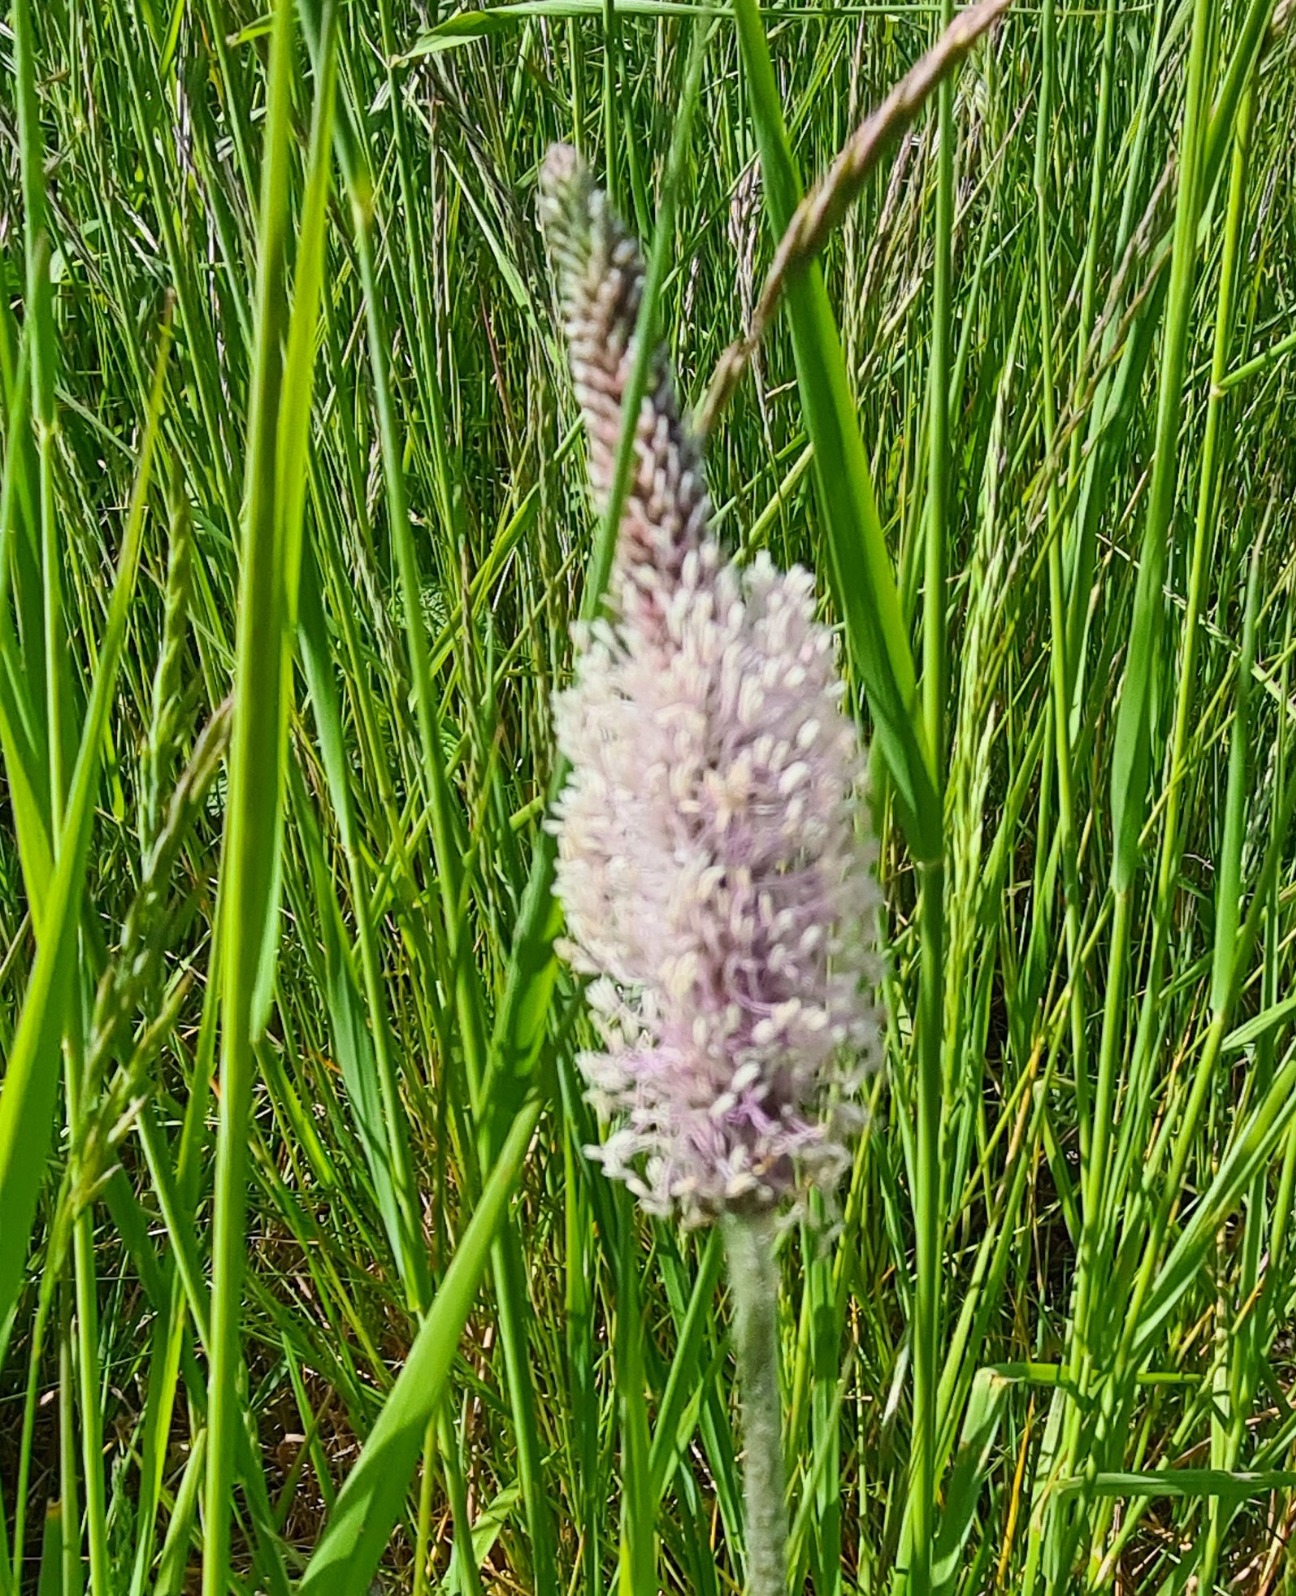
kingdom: Plantae
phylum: Tracheophyta
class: Magnoliopsida
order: Lamiales
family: Plantaginaceae
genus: Plantago
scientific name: Plantago media
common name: Dunet vejbred
